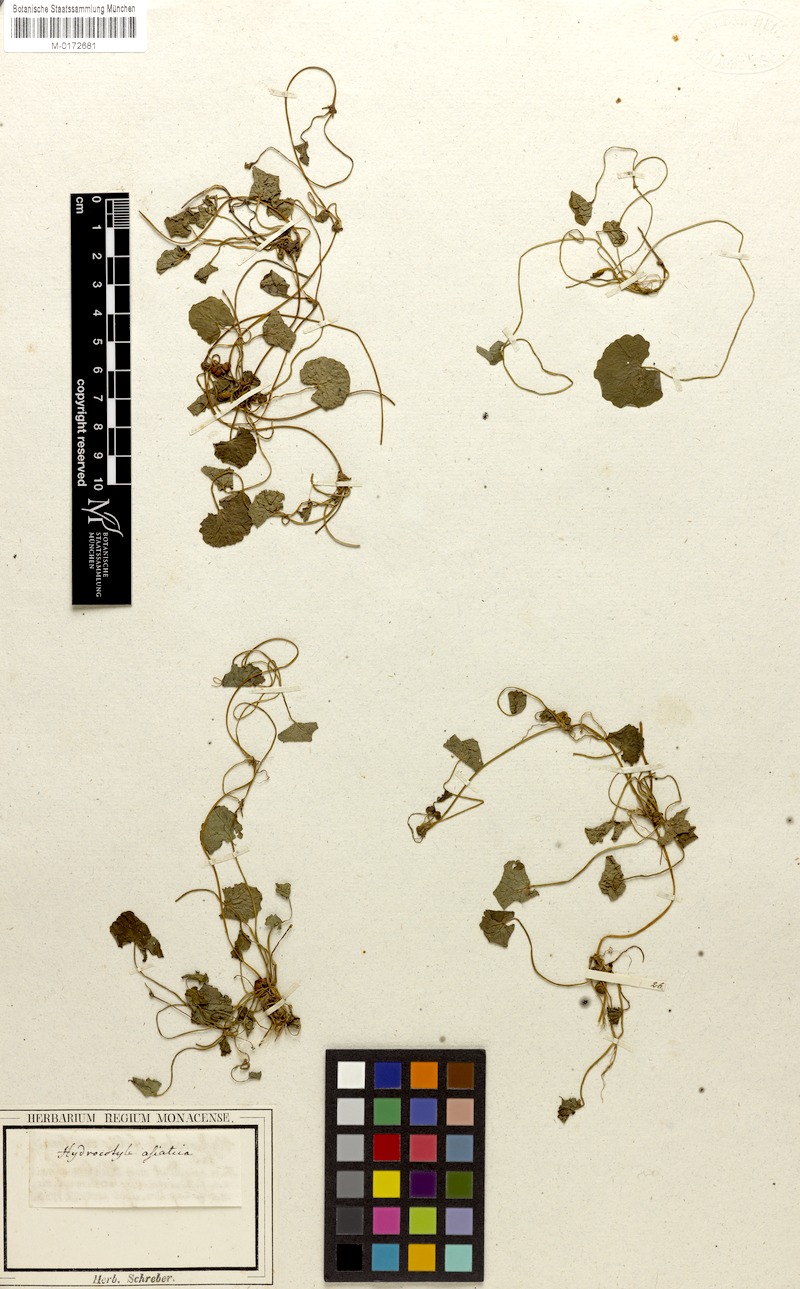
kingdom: Plantae
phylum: Tracheophyta
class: Magnoliopsida
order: Apiales
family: Apiaceae
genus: Centella
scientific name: Centella asiatica
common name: Spadeleaf
